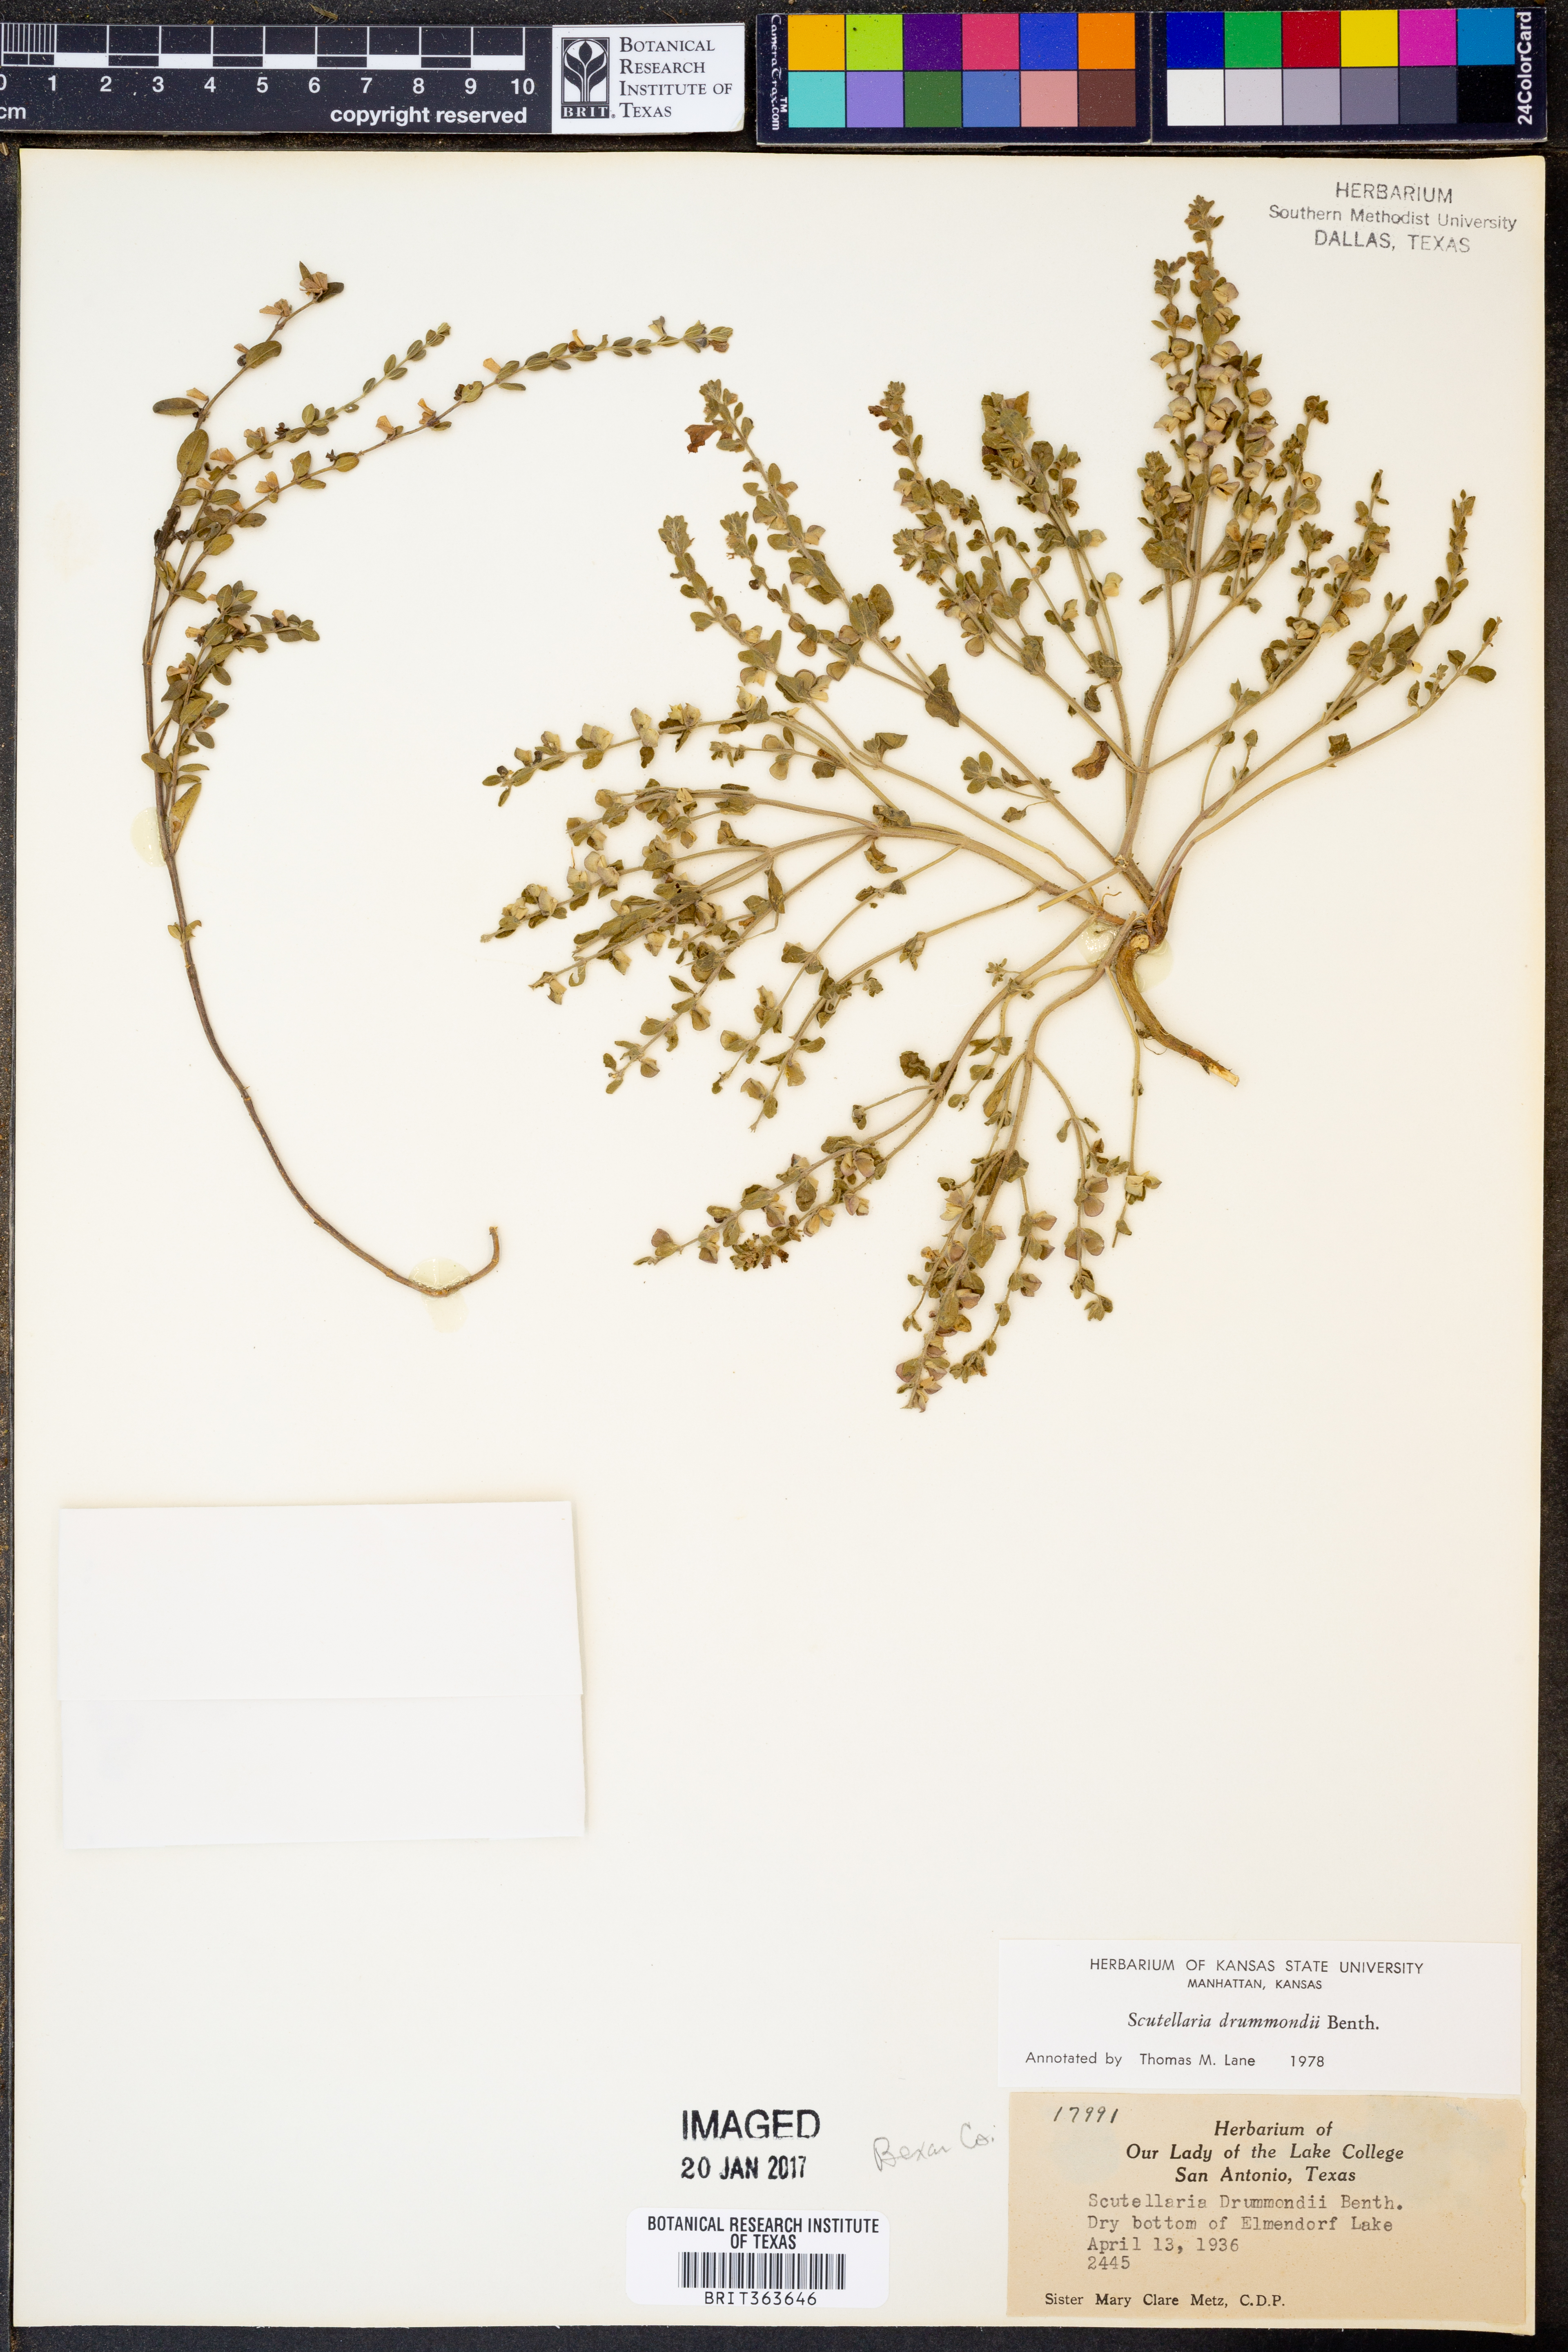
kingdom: Plantae
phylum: Tracheophyta
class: Magnoliopsida
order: Lamiales
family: Lamiaceae
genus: Scutellaria
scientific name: Scutellaria drummondii
